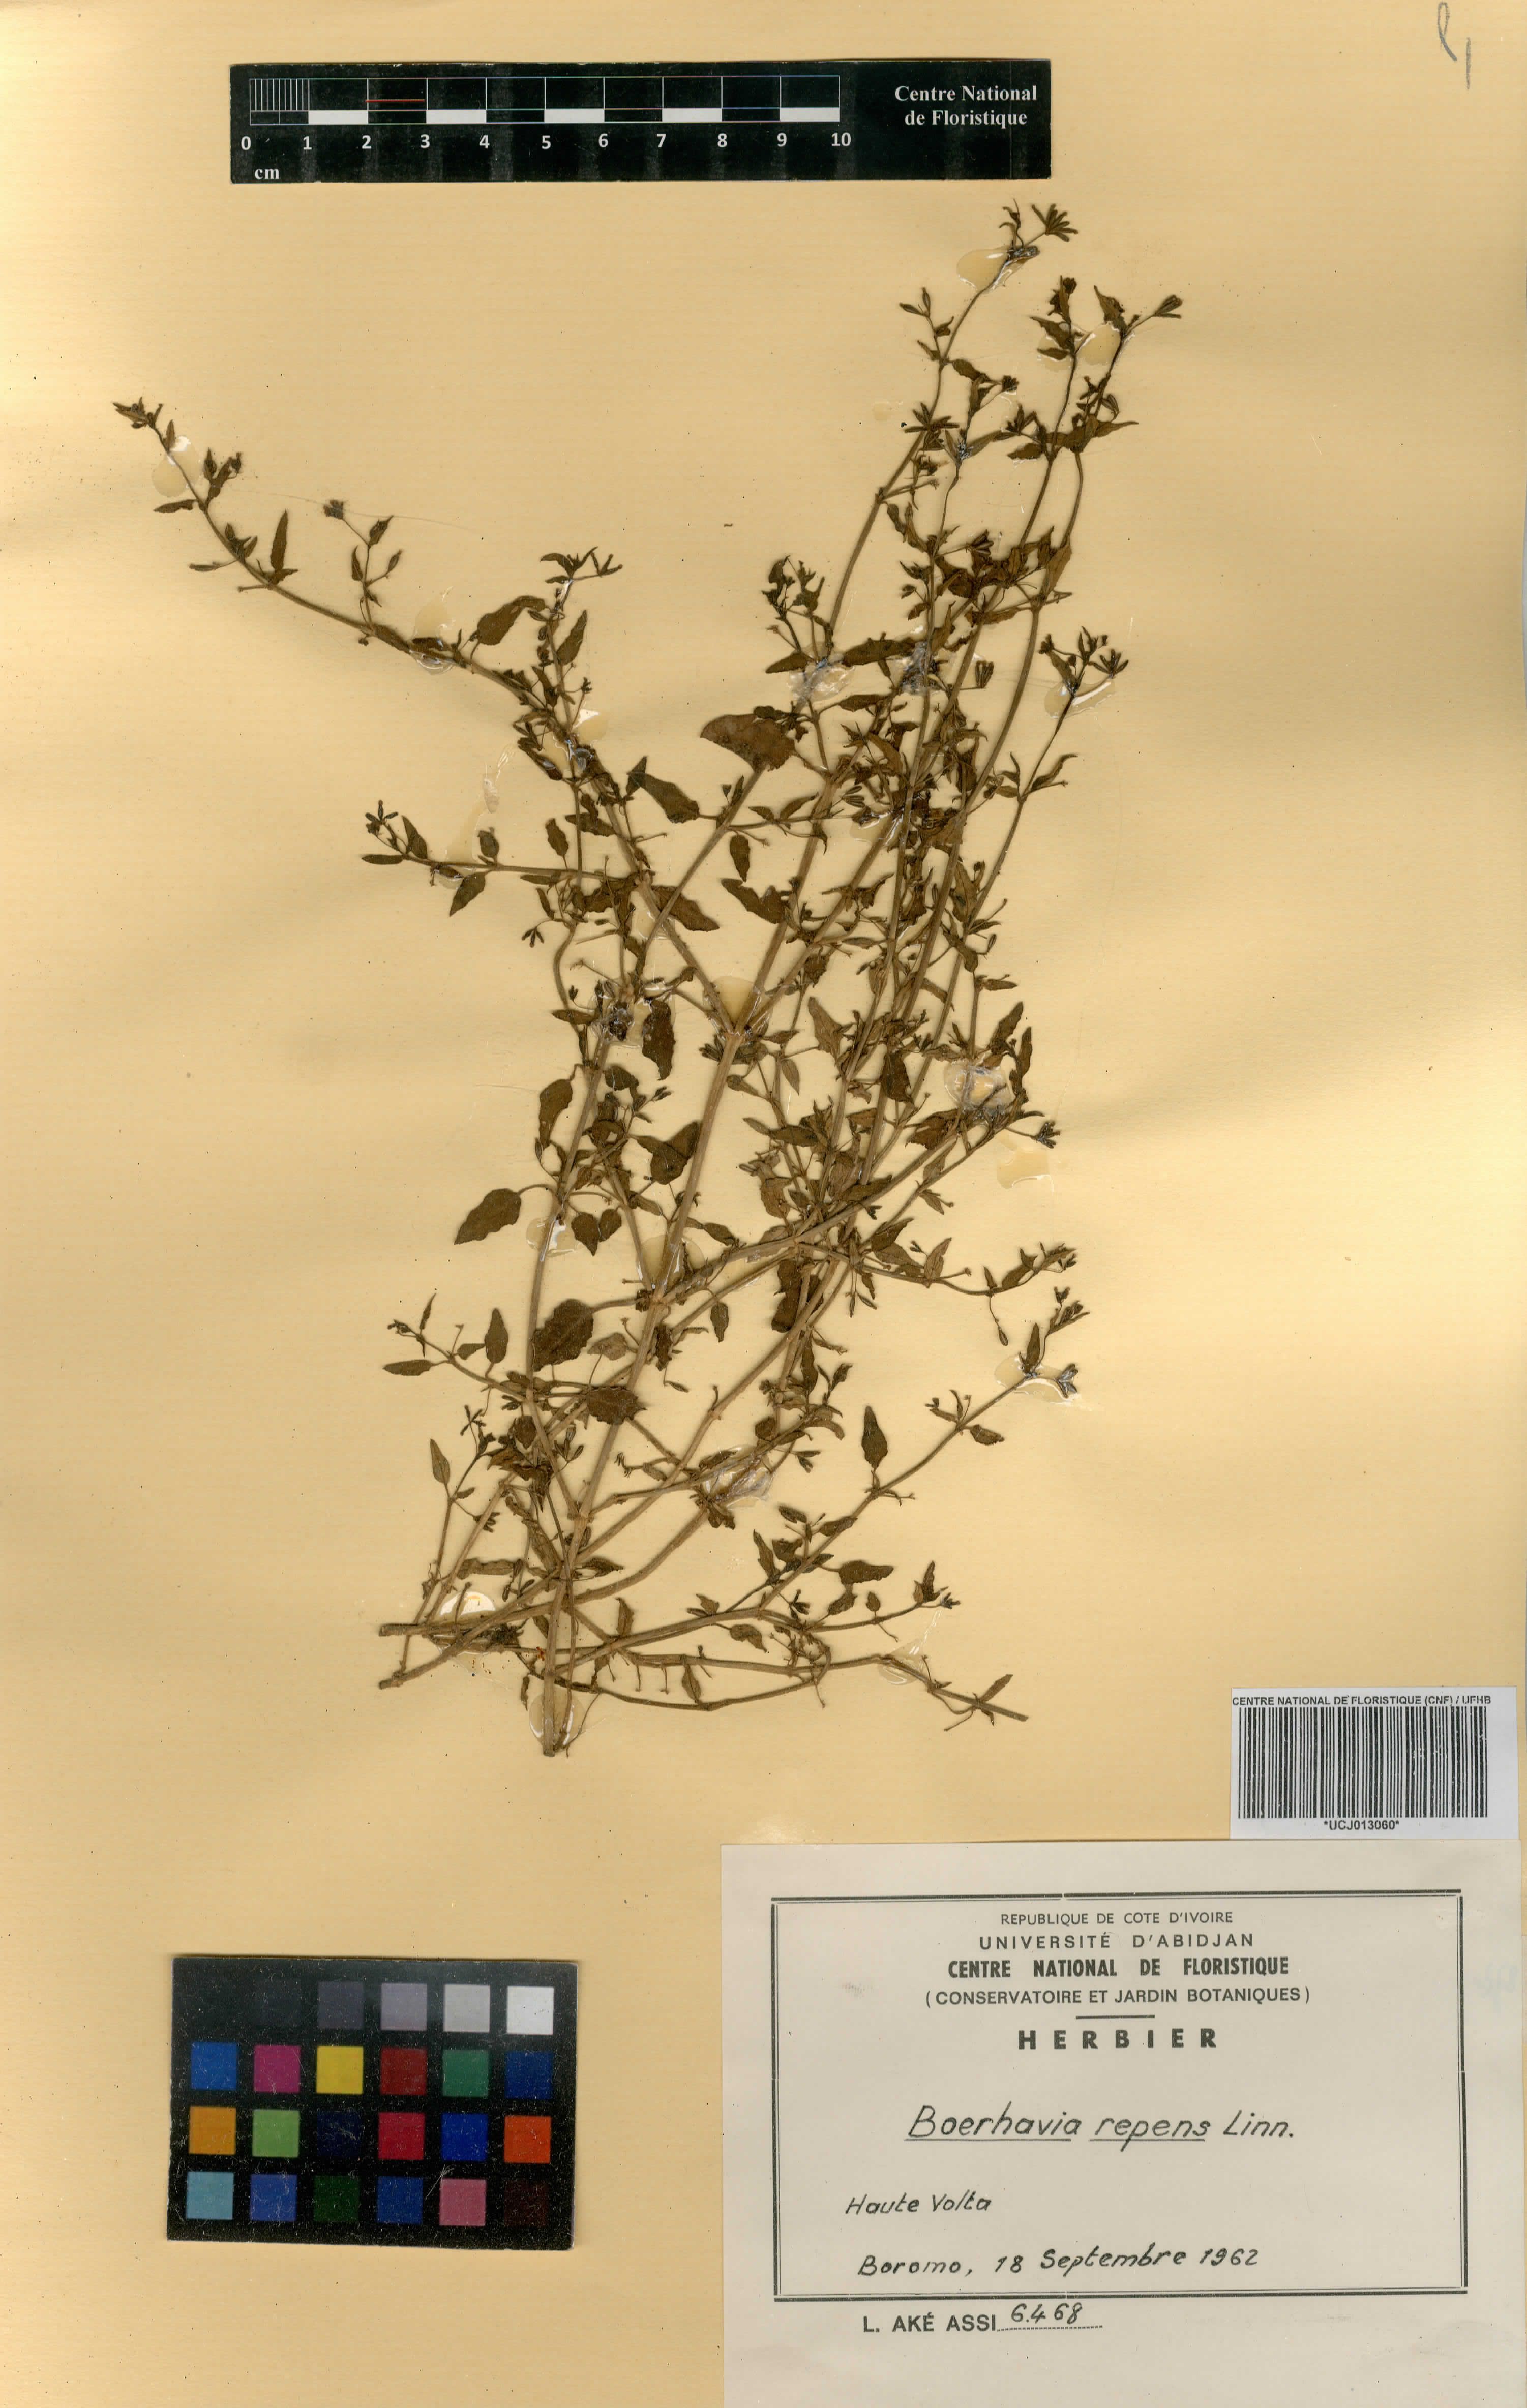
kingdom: Plantae
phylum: Tracheophyta
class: Magnoliopsida
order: Caryophyllales
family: Nyctaginaceae
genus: Boerhavia
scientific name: Boerhavia repens
